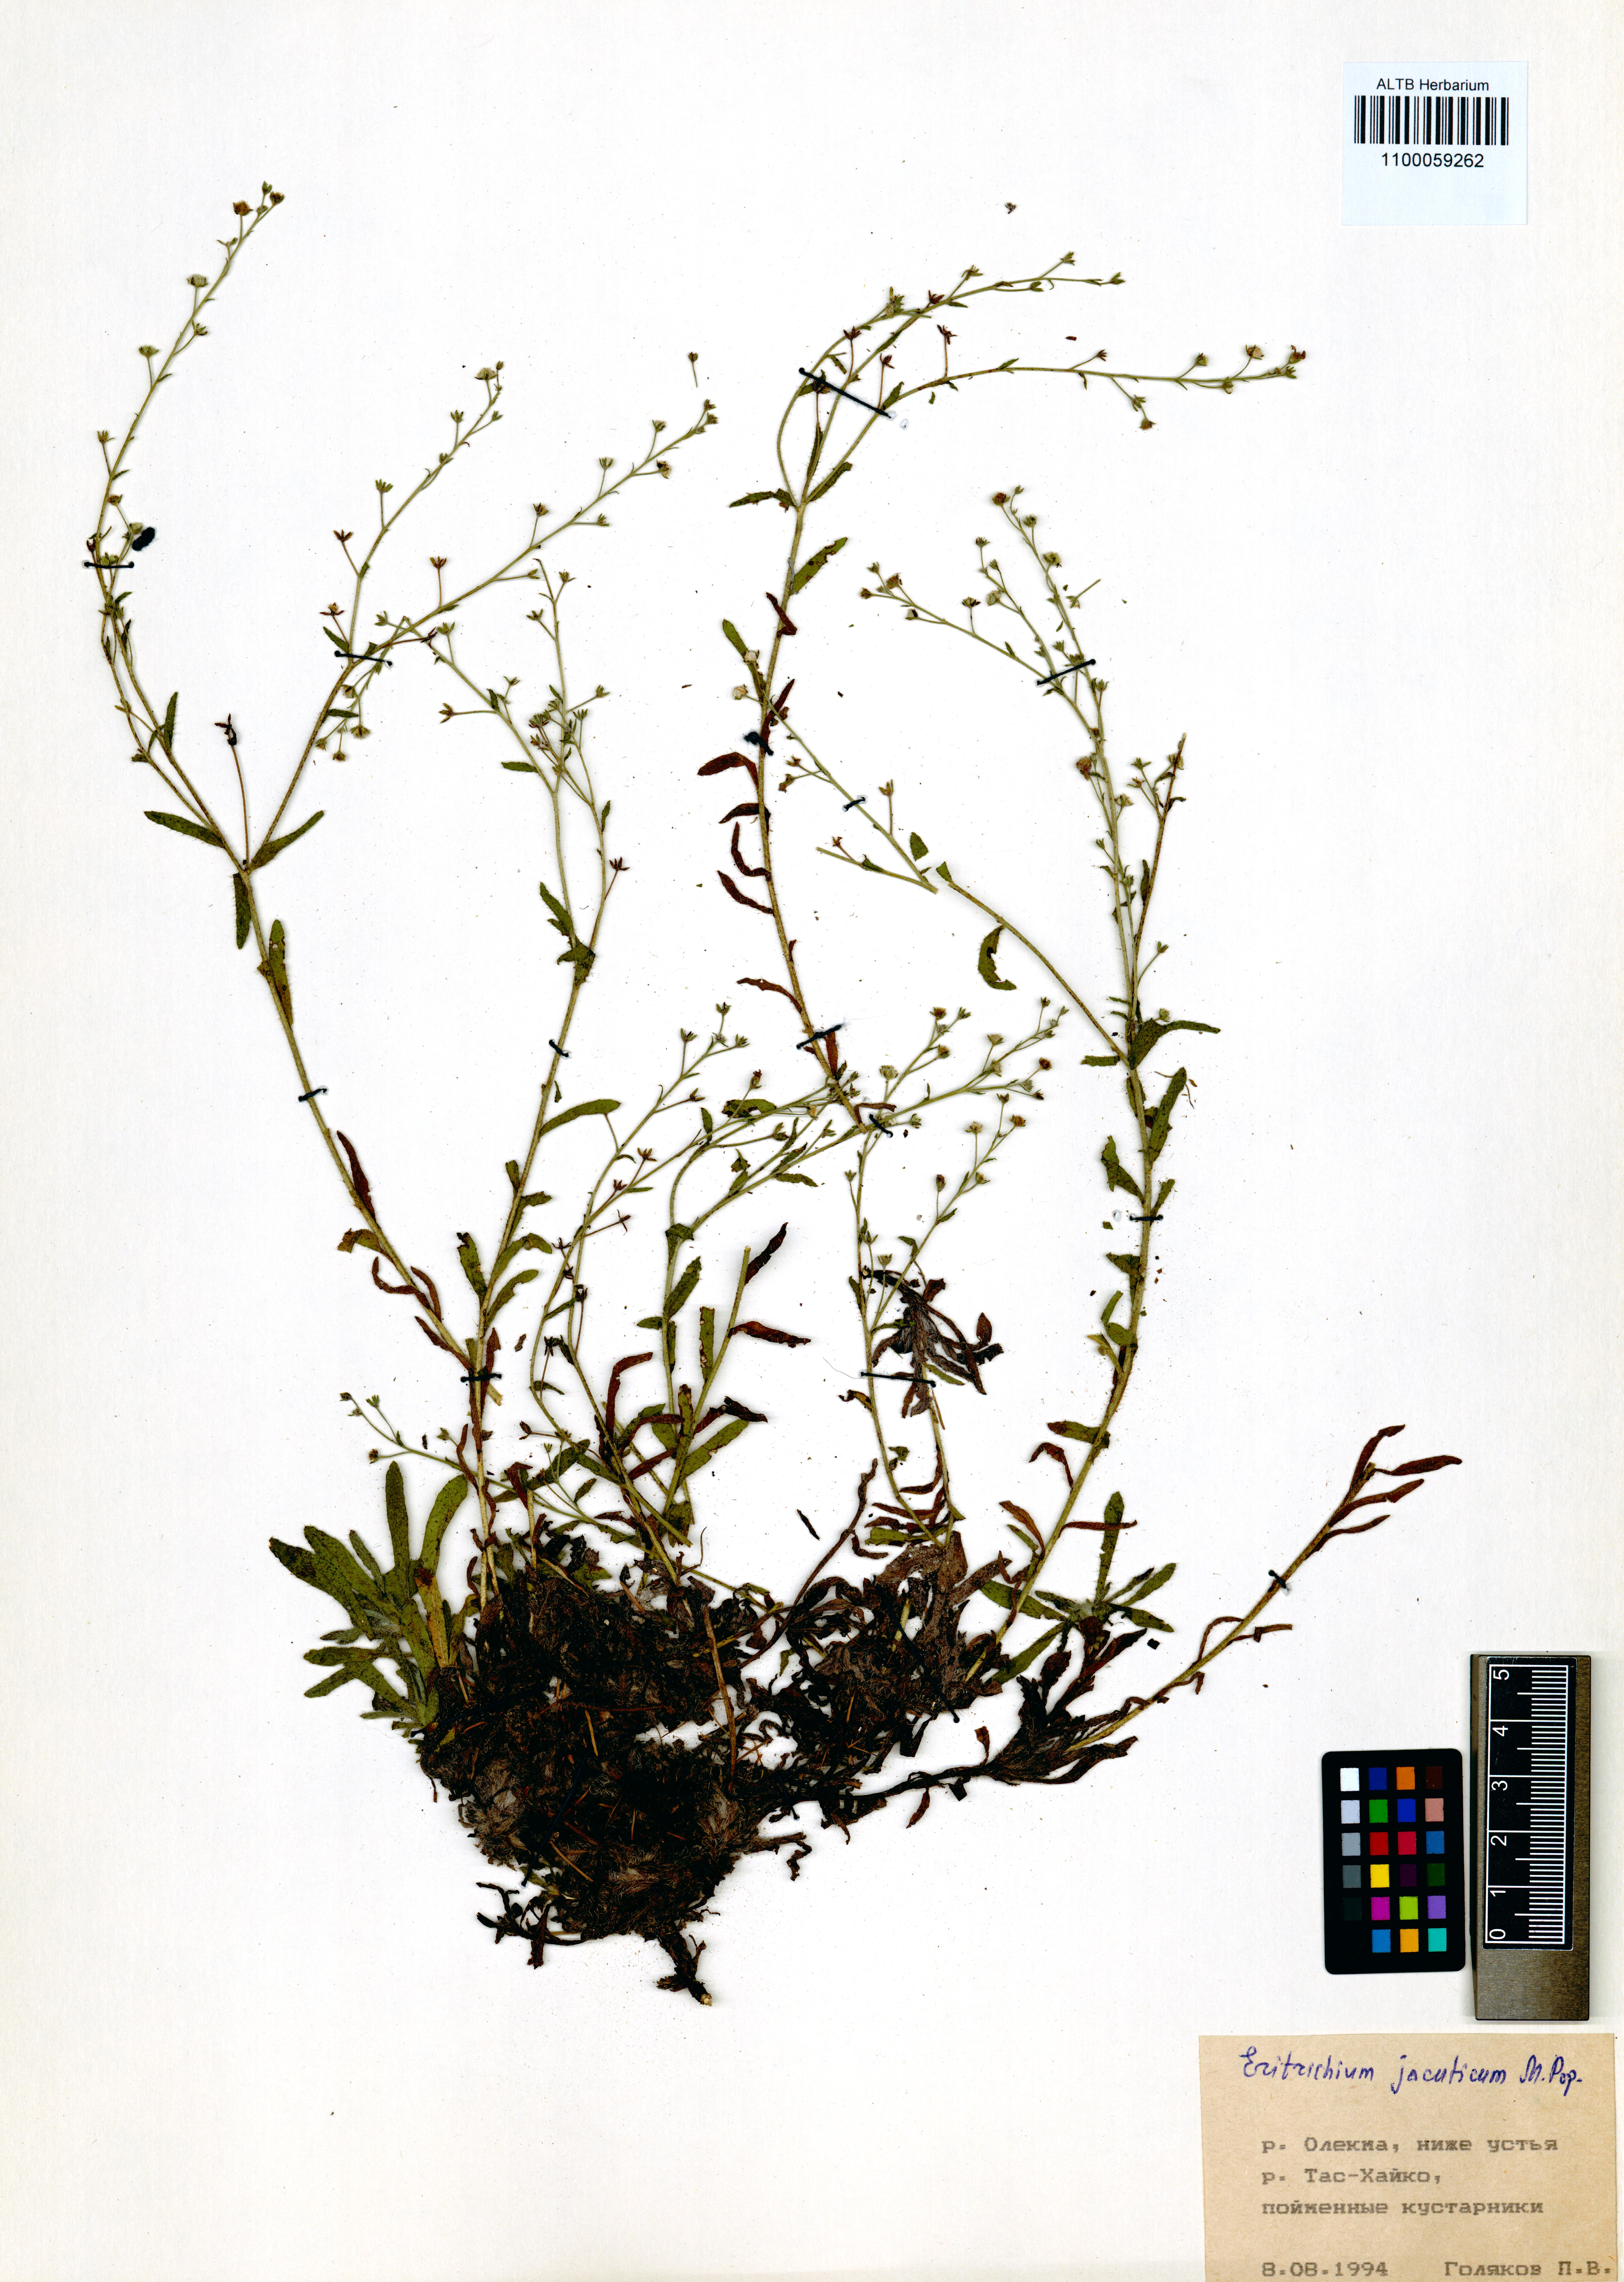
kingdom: Plantae
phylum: Tracheophyta
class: Magnoliopsida
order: Boraginales
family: Boraginaceae
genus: Eritrichium
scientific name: Eritrichium jacuticum
